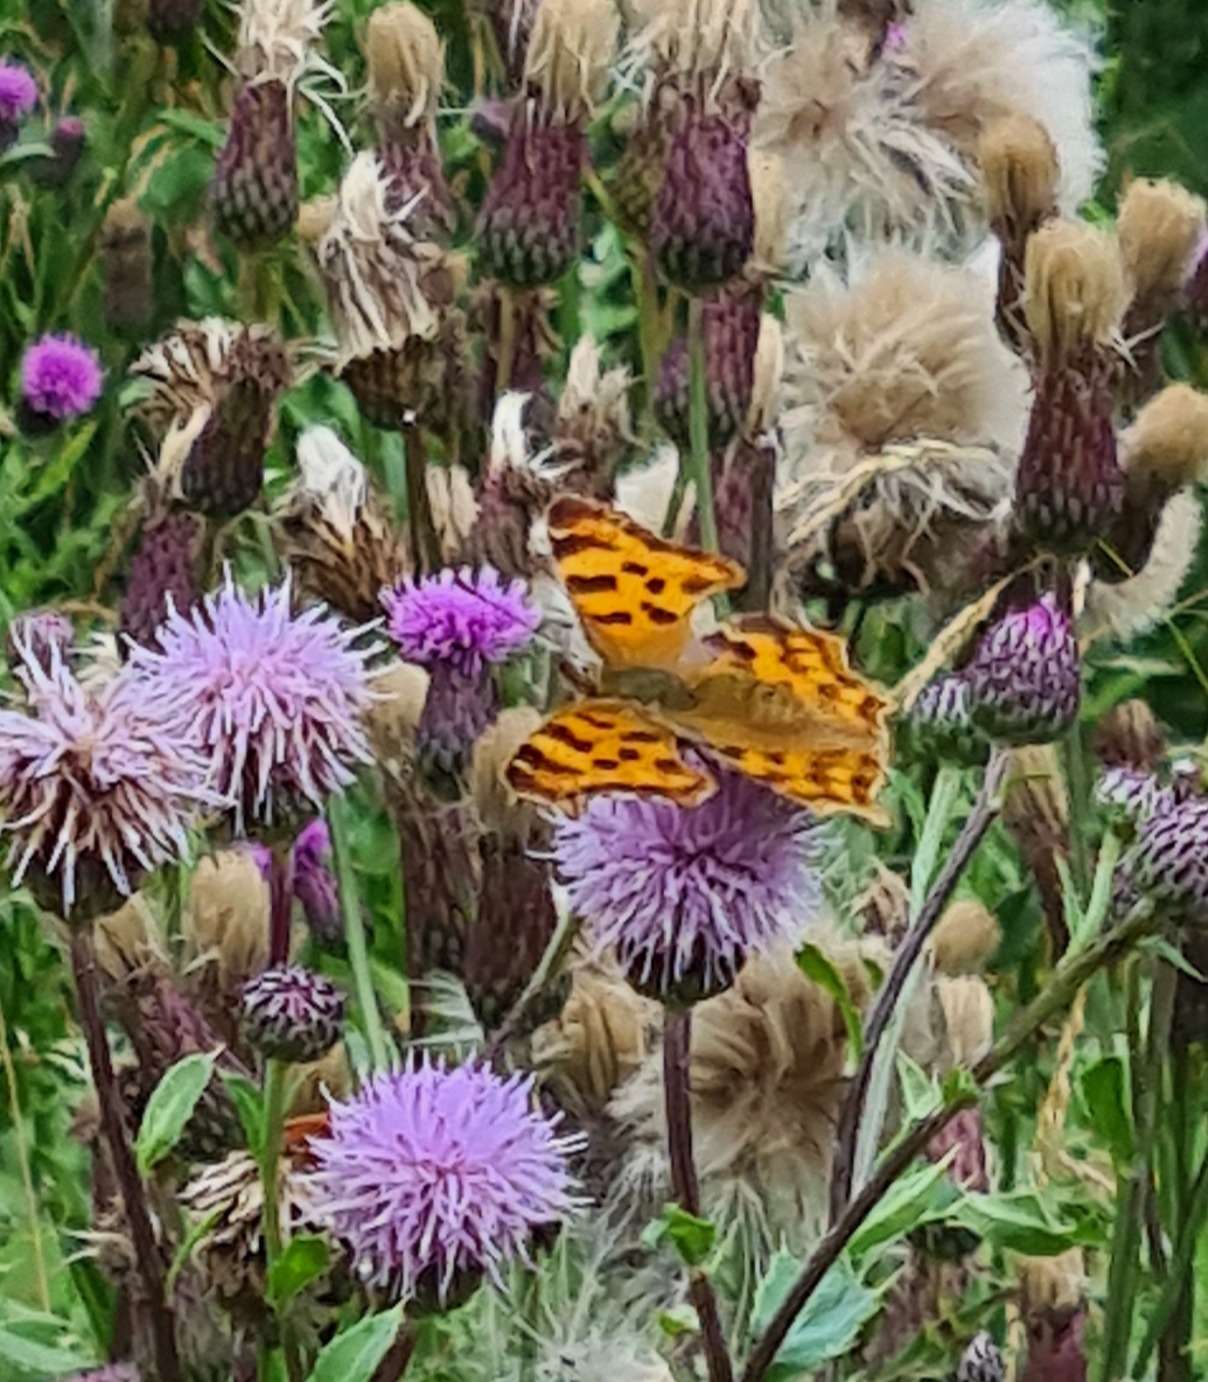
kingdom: Animalia
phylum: Arthropoda
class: Insecta
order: Lepidoptera
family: Nymphalidae
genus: Polygonia
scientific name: Polygonia c-album
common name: Det hvide C
